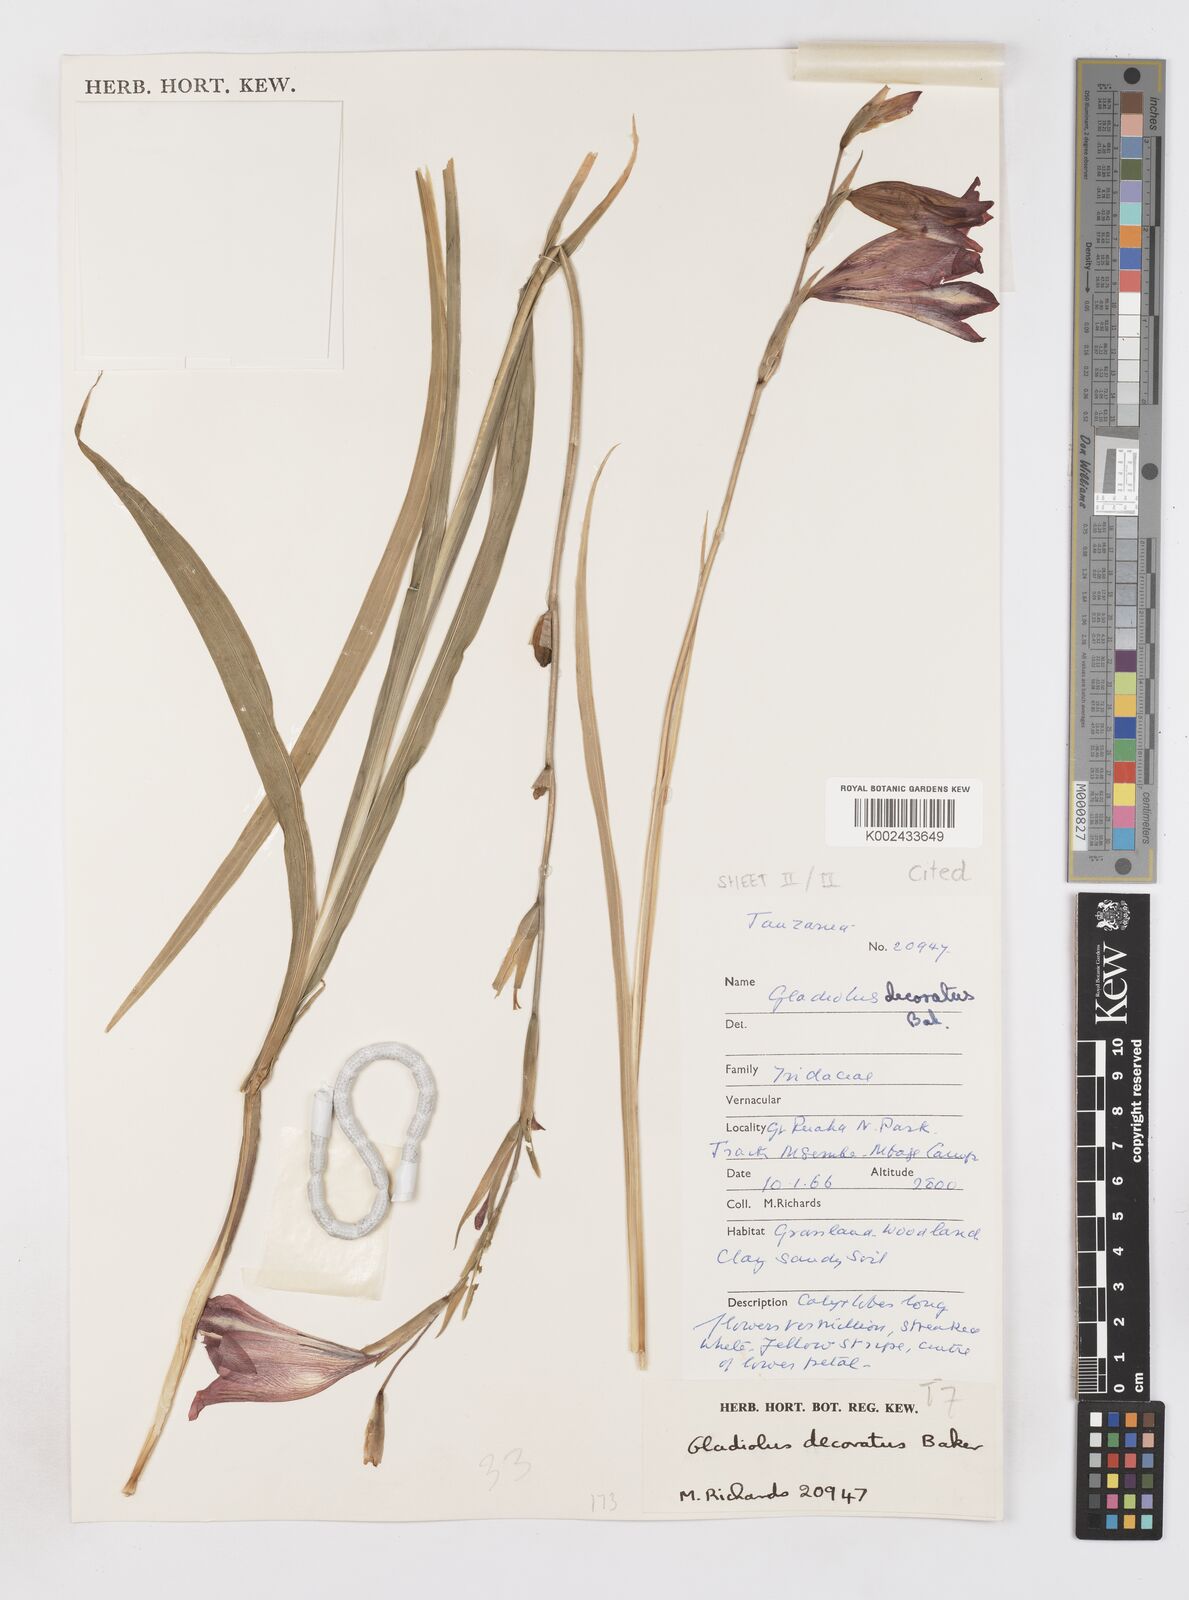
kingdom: Plantae
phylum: Tracheophyta
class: Liliopsida
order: Asparagales
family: Iridaceae
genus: Gladiolus
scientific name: Gladiolus decoratus
